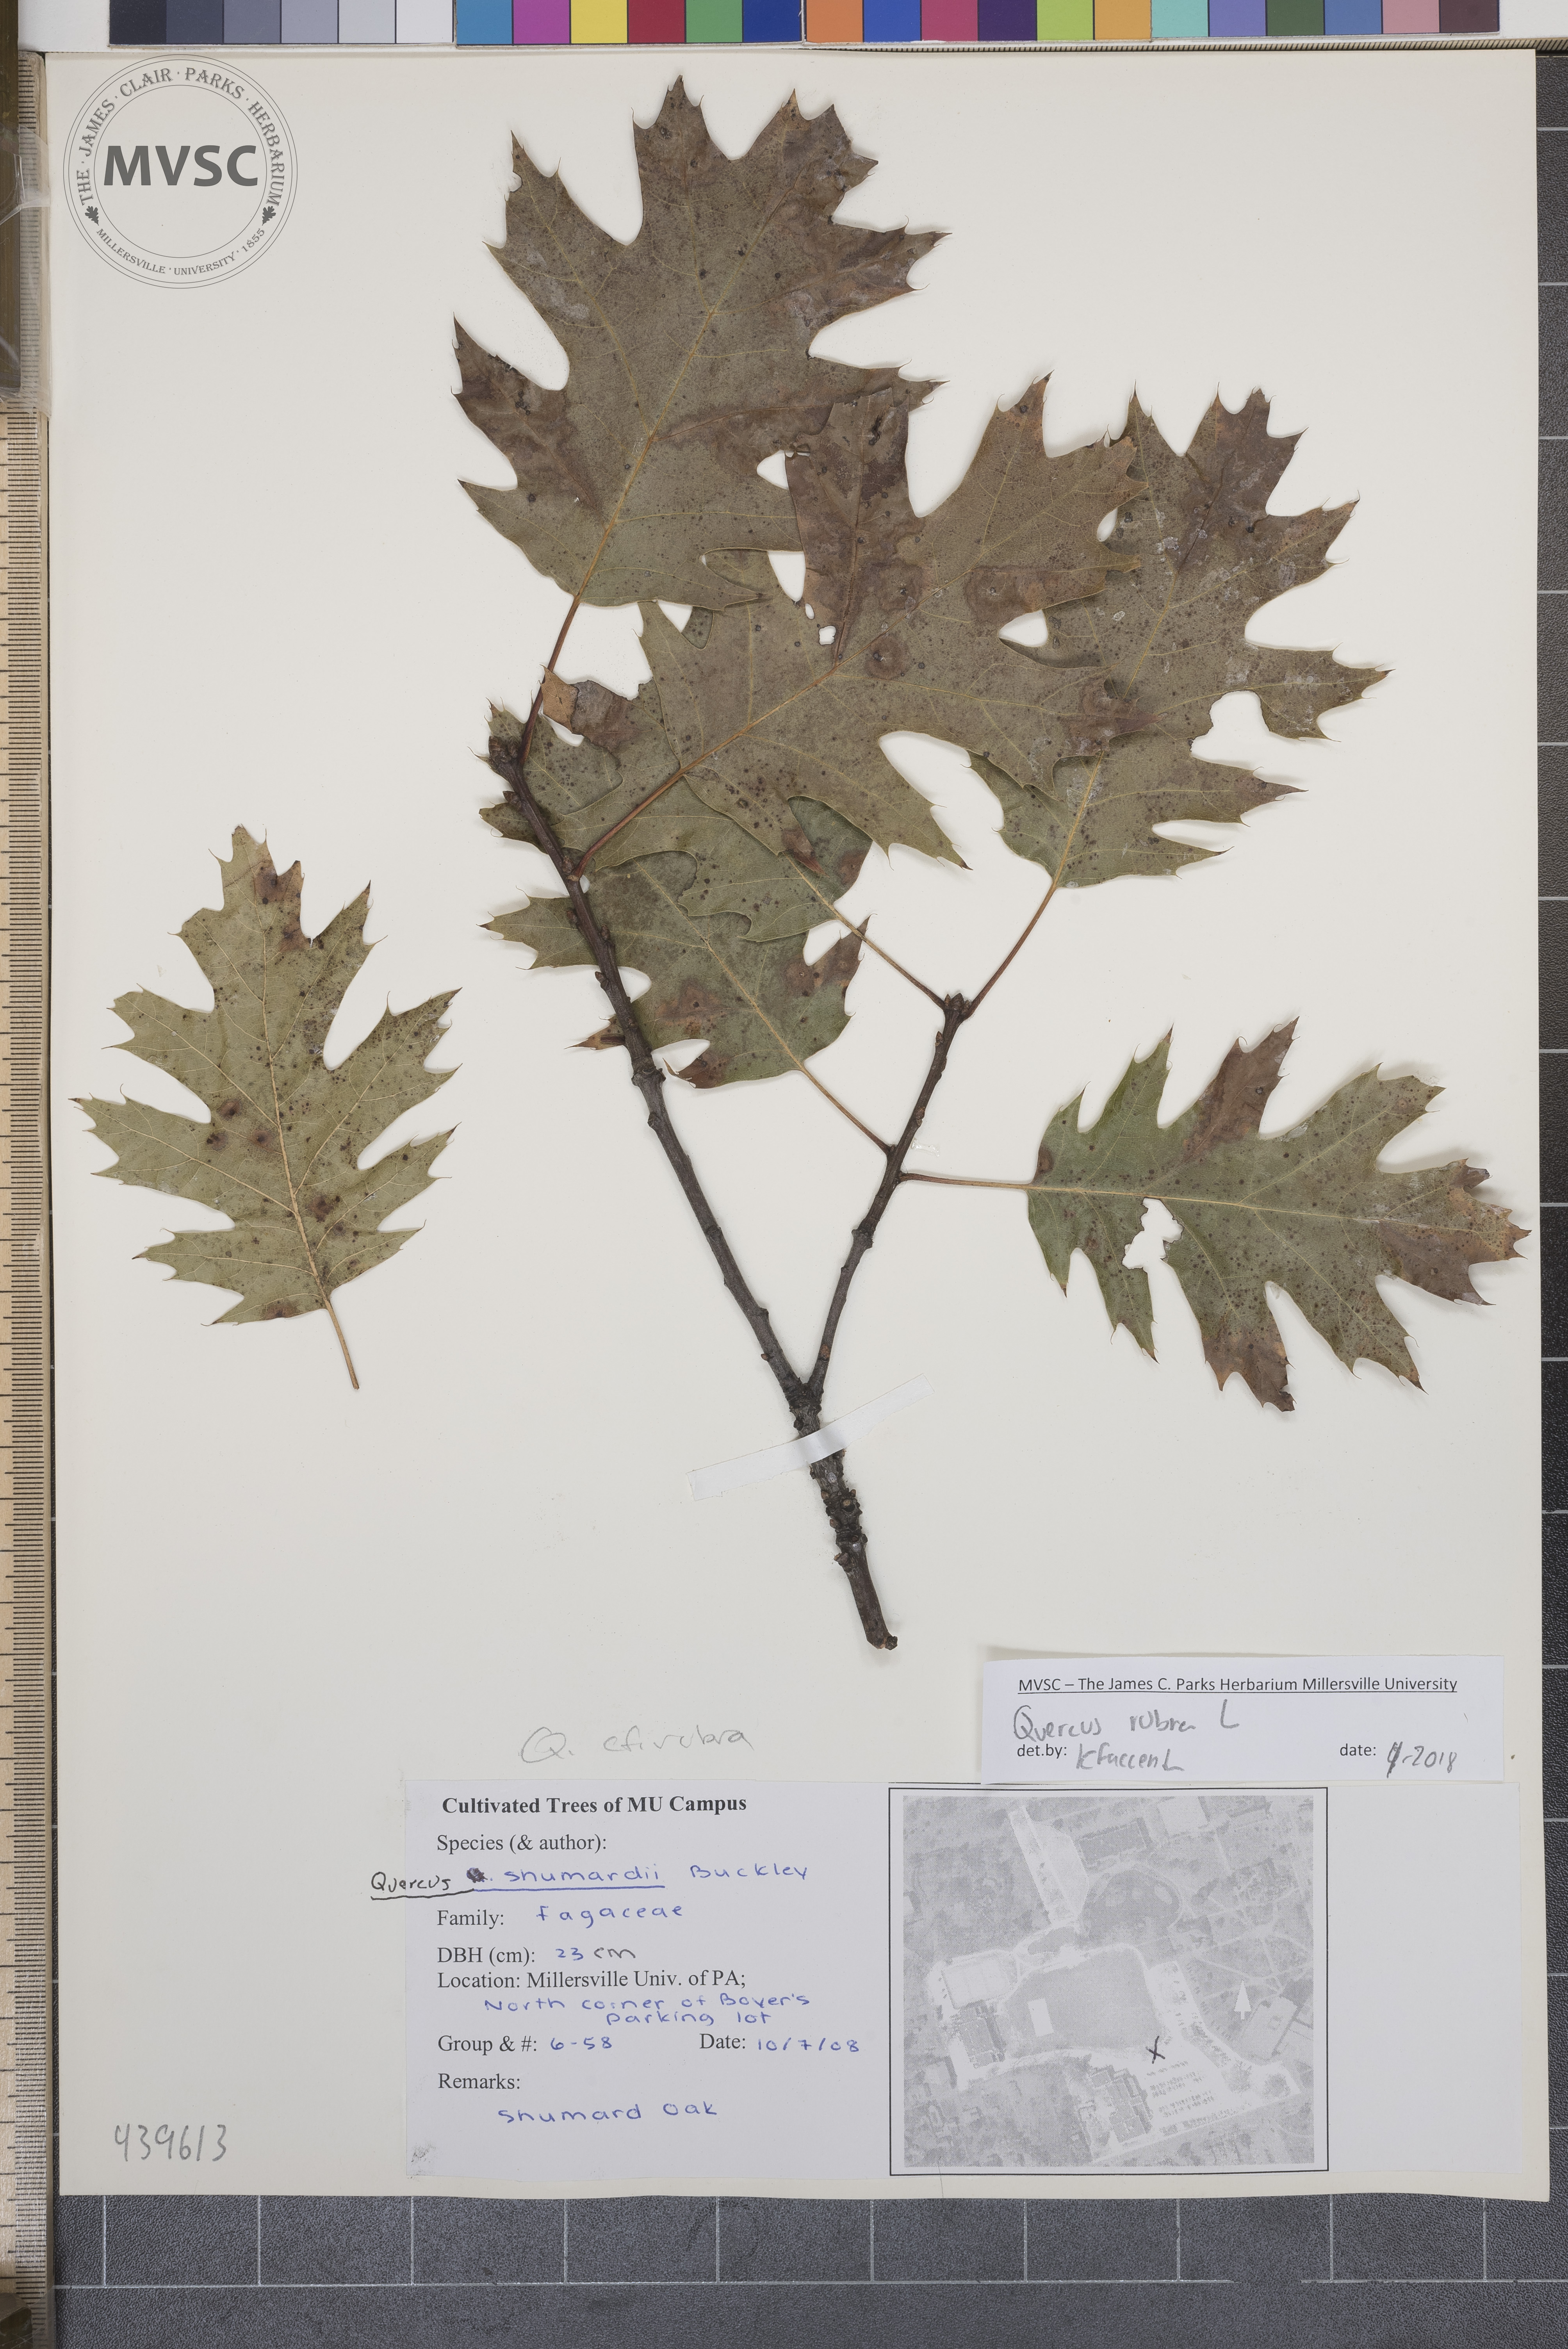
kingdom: Plantae
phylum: Tracheophyta
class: Magnoliopsida
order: Fagales
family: Fagaceae
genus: Quercus
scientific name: Quercus rubra
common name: Red oak
